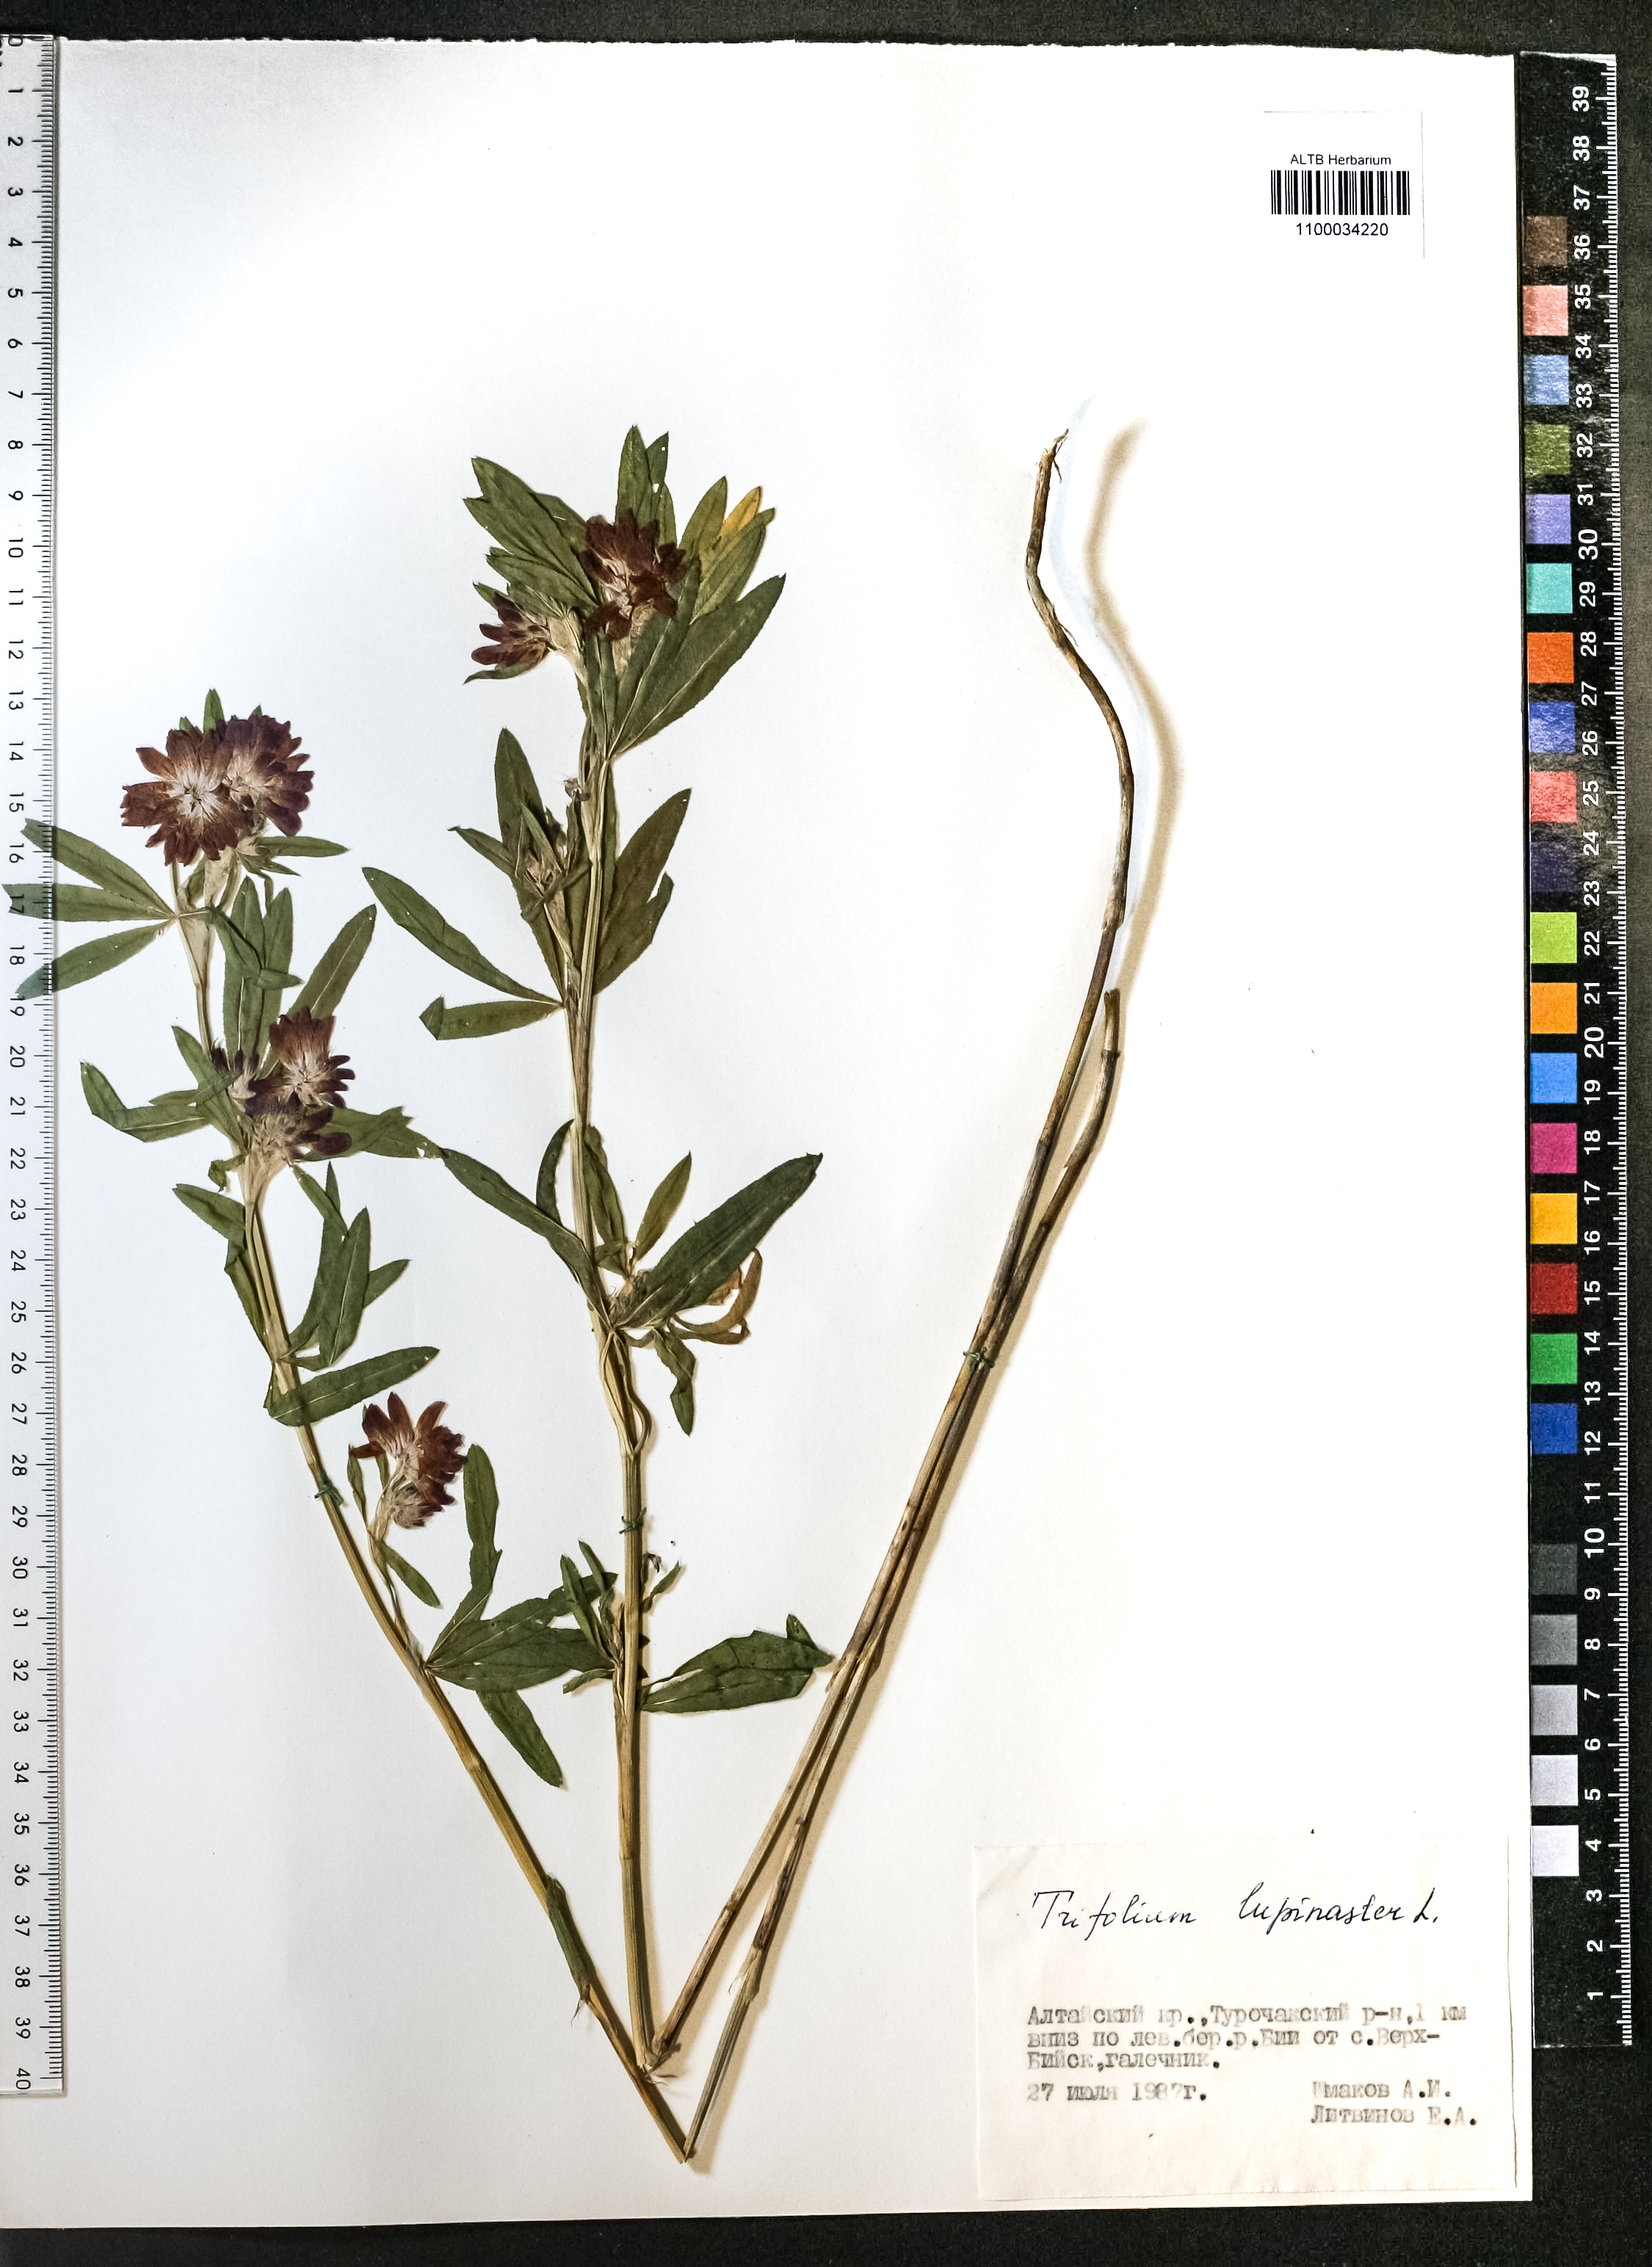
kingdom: Plantae
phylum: Tracheophyta
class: Magnoliopsida
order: Fabales
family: Fabaceae
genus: Trifolium
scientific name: Trifolium lupinaster
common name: Lupine clover
